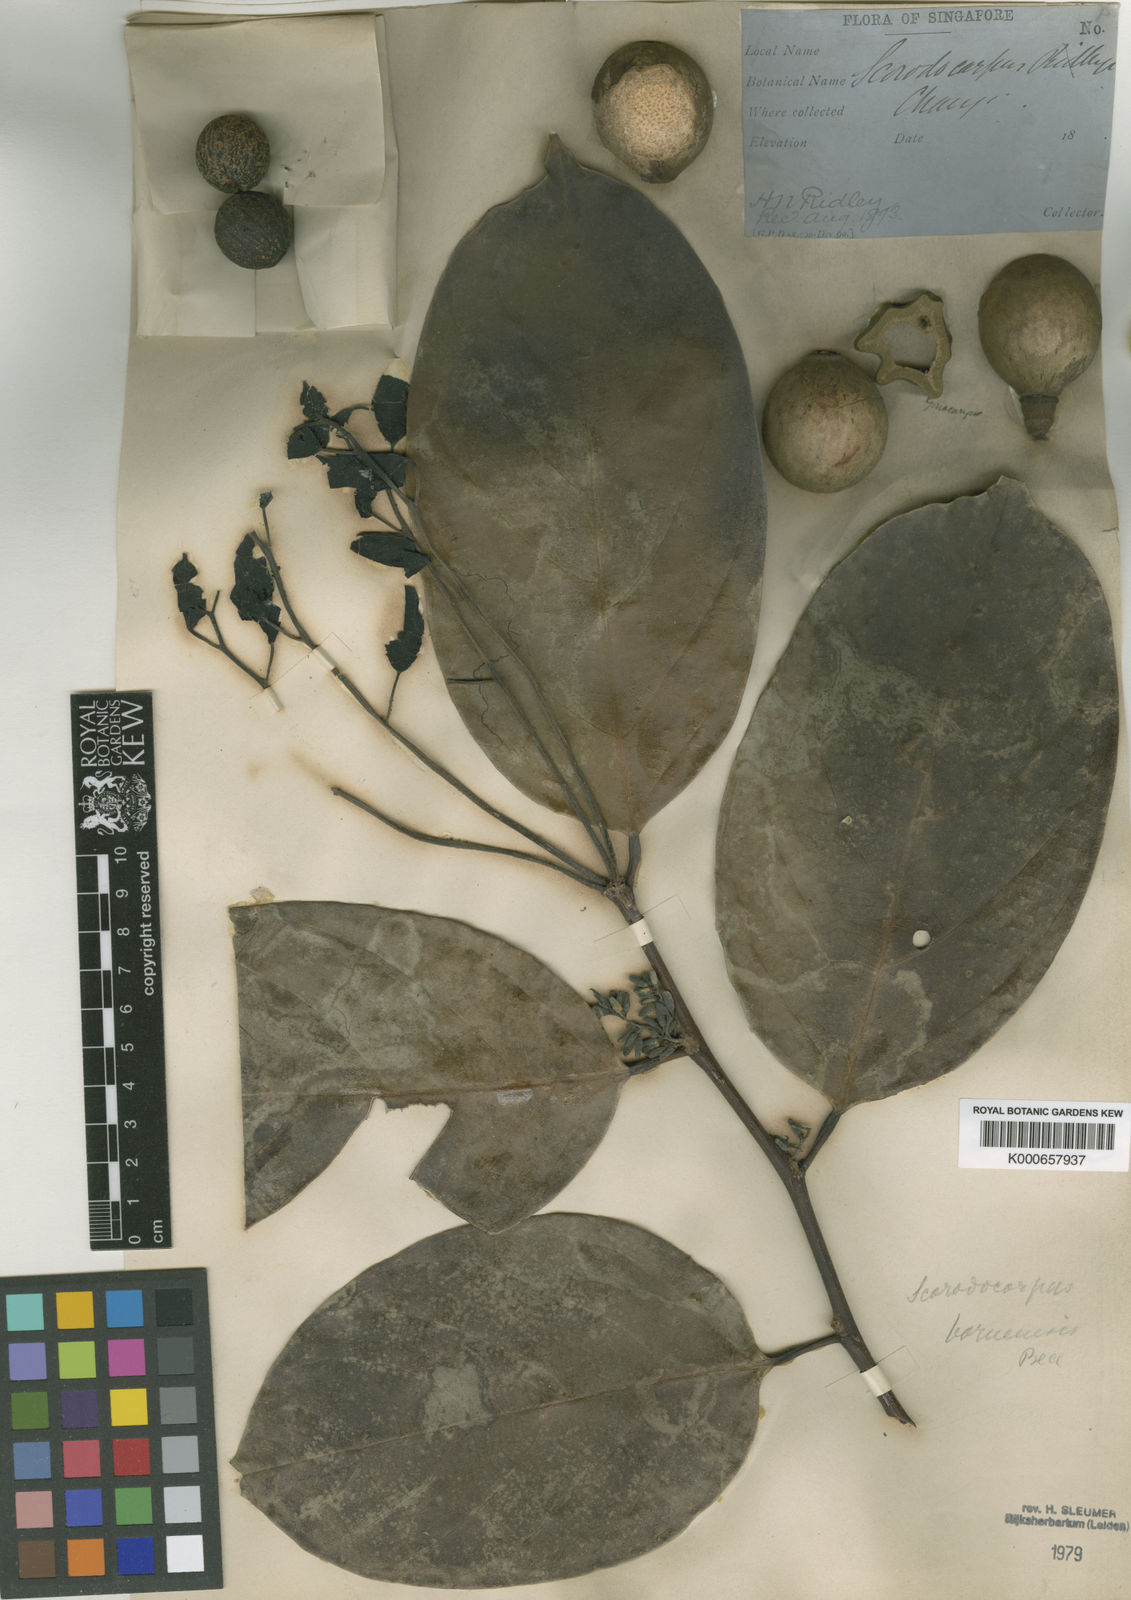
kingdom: Plantae
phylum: Tracheophyta
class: Magnoliopsida
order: Santalales
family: Strombosiaceae
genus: Scorodocarpus
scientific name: Scorodocarpus borneensis
